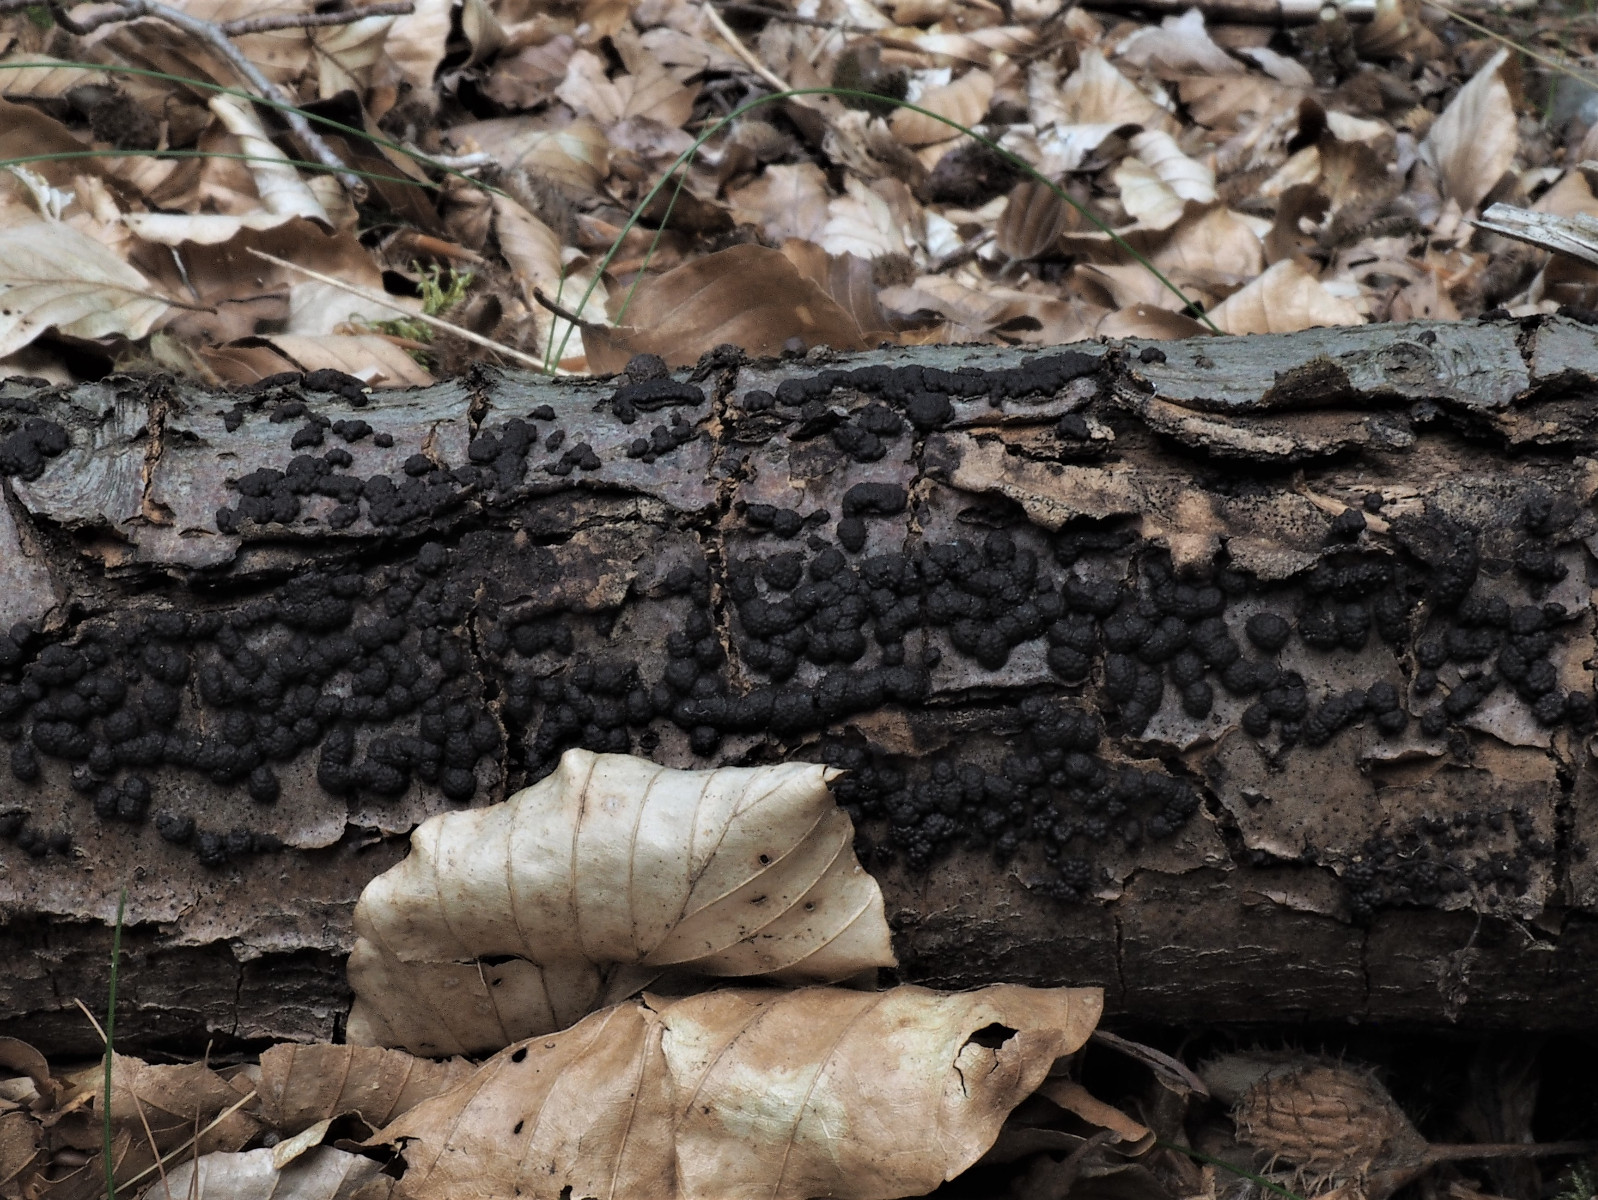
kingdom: Fungi
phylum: Ascomycota
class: Sordariomycetes
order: Xylariales
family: Hypoxylaceae
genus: Jackrogersella
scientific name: Jackrogersella multiformis
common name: foranderlig kulbær
